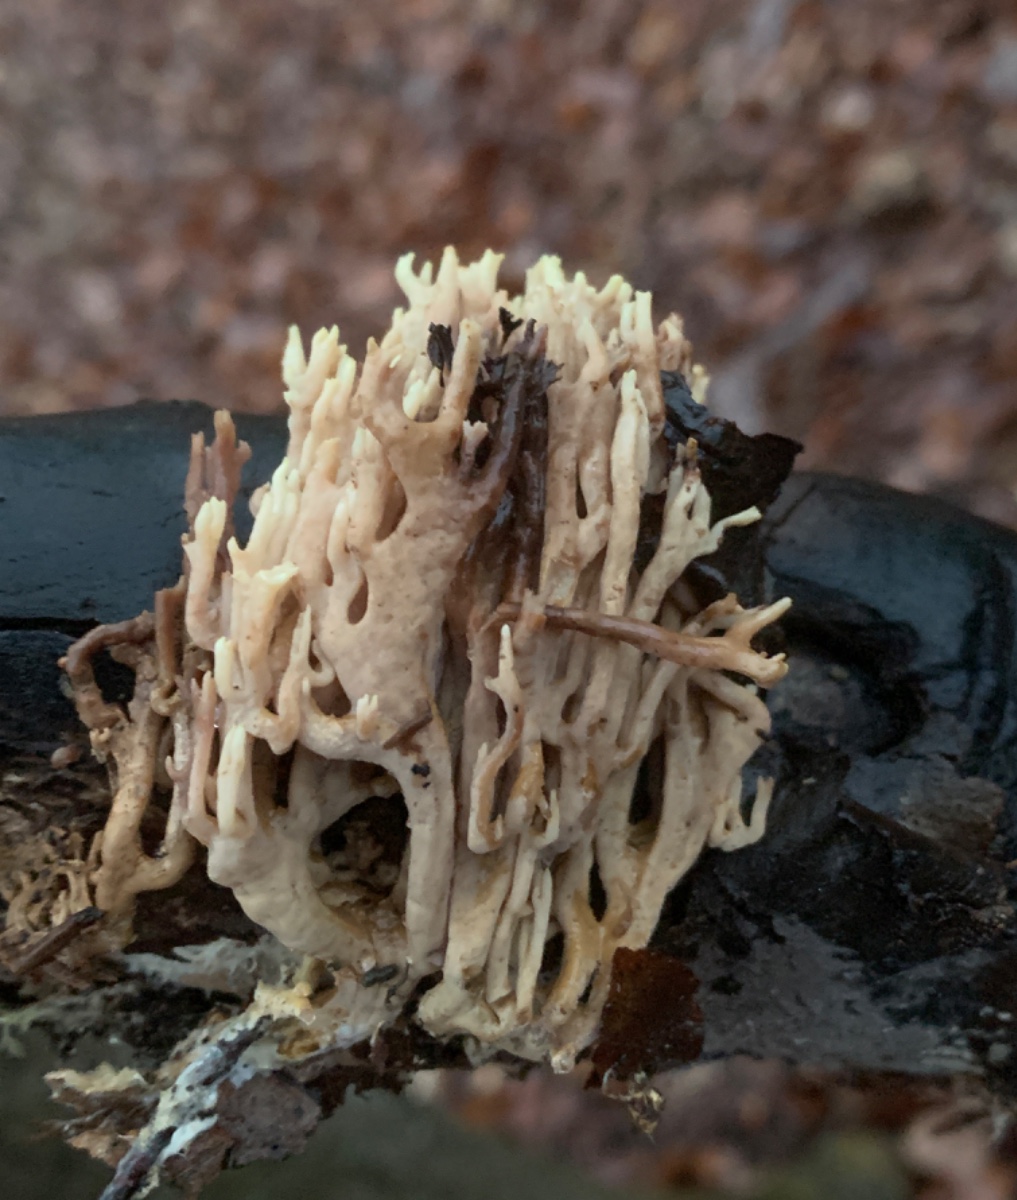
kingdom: Fungi
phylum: Basidiomycota
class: Agaricomycetes
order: Gomphales
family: Gomphaceae
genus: Ramaria
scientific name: Ramaria stricta
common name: rank koralsvamp
